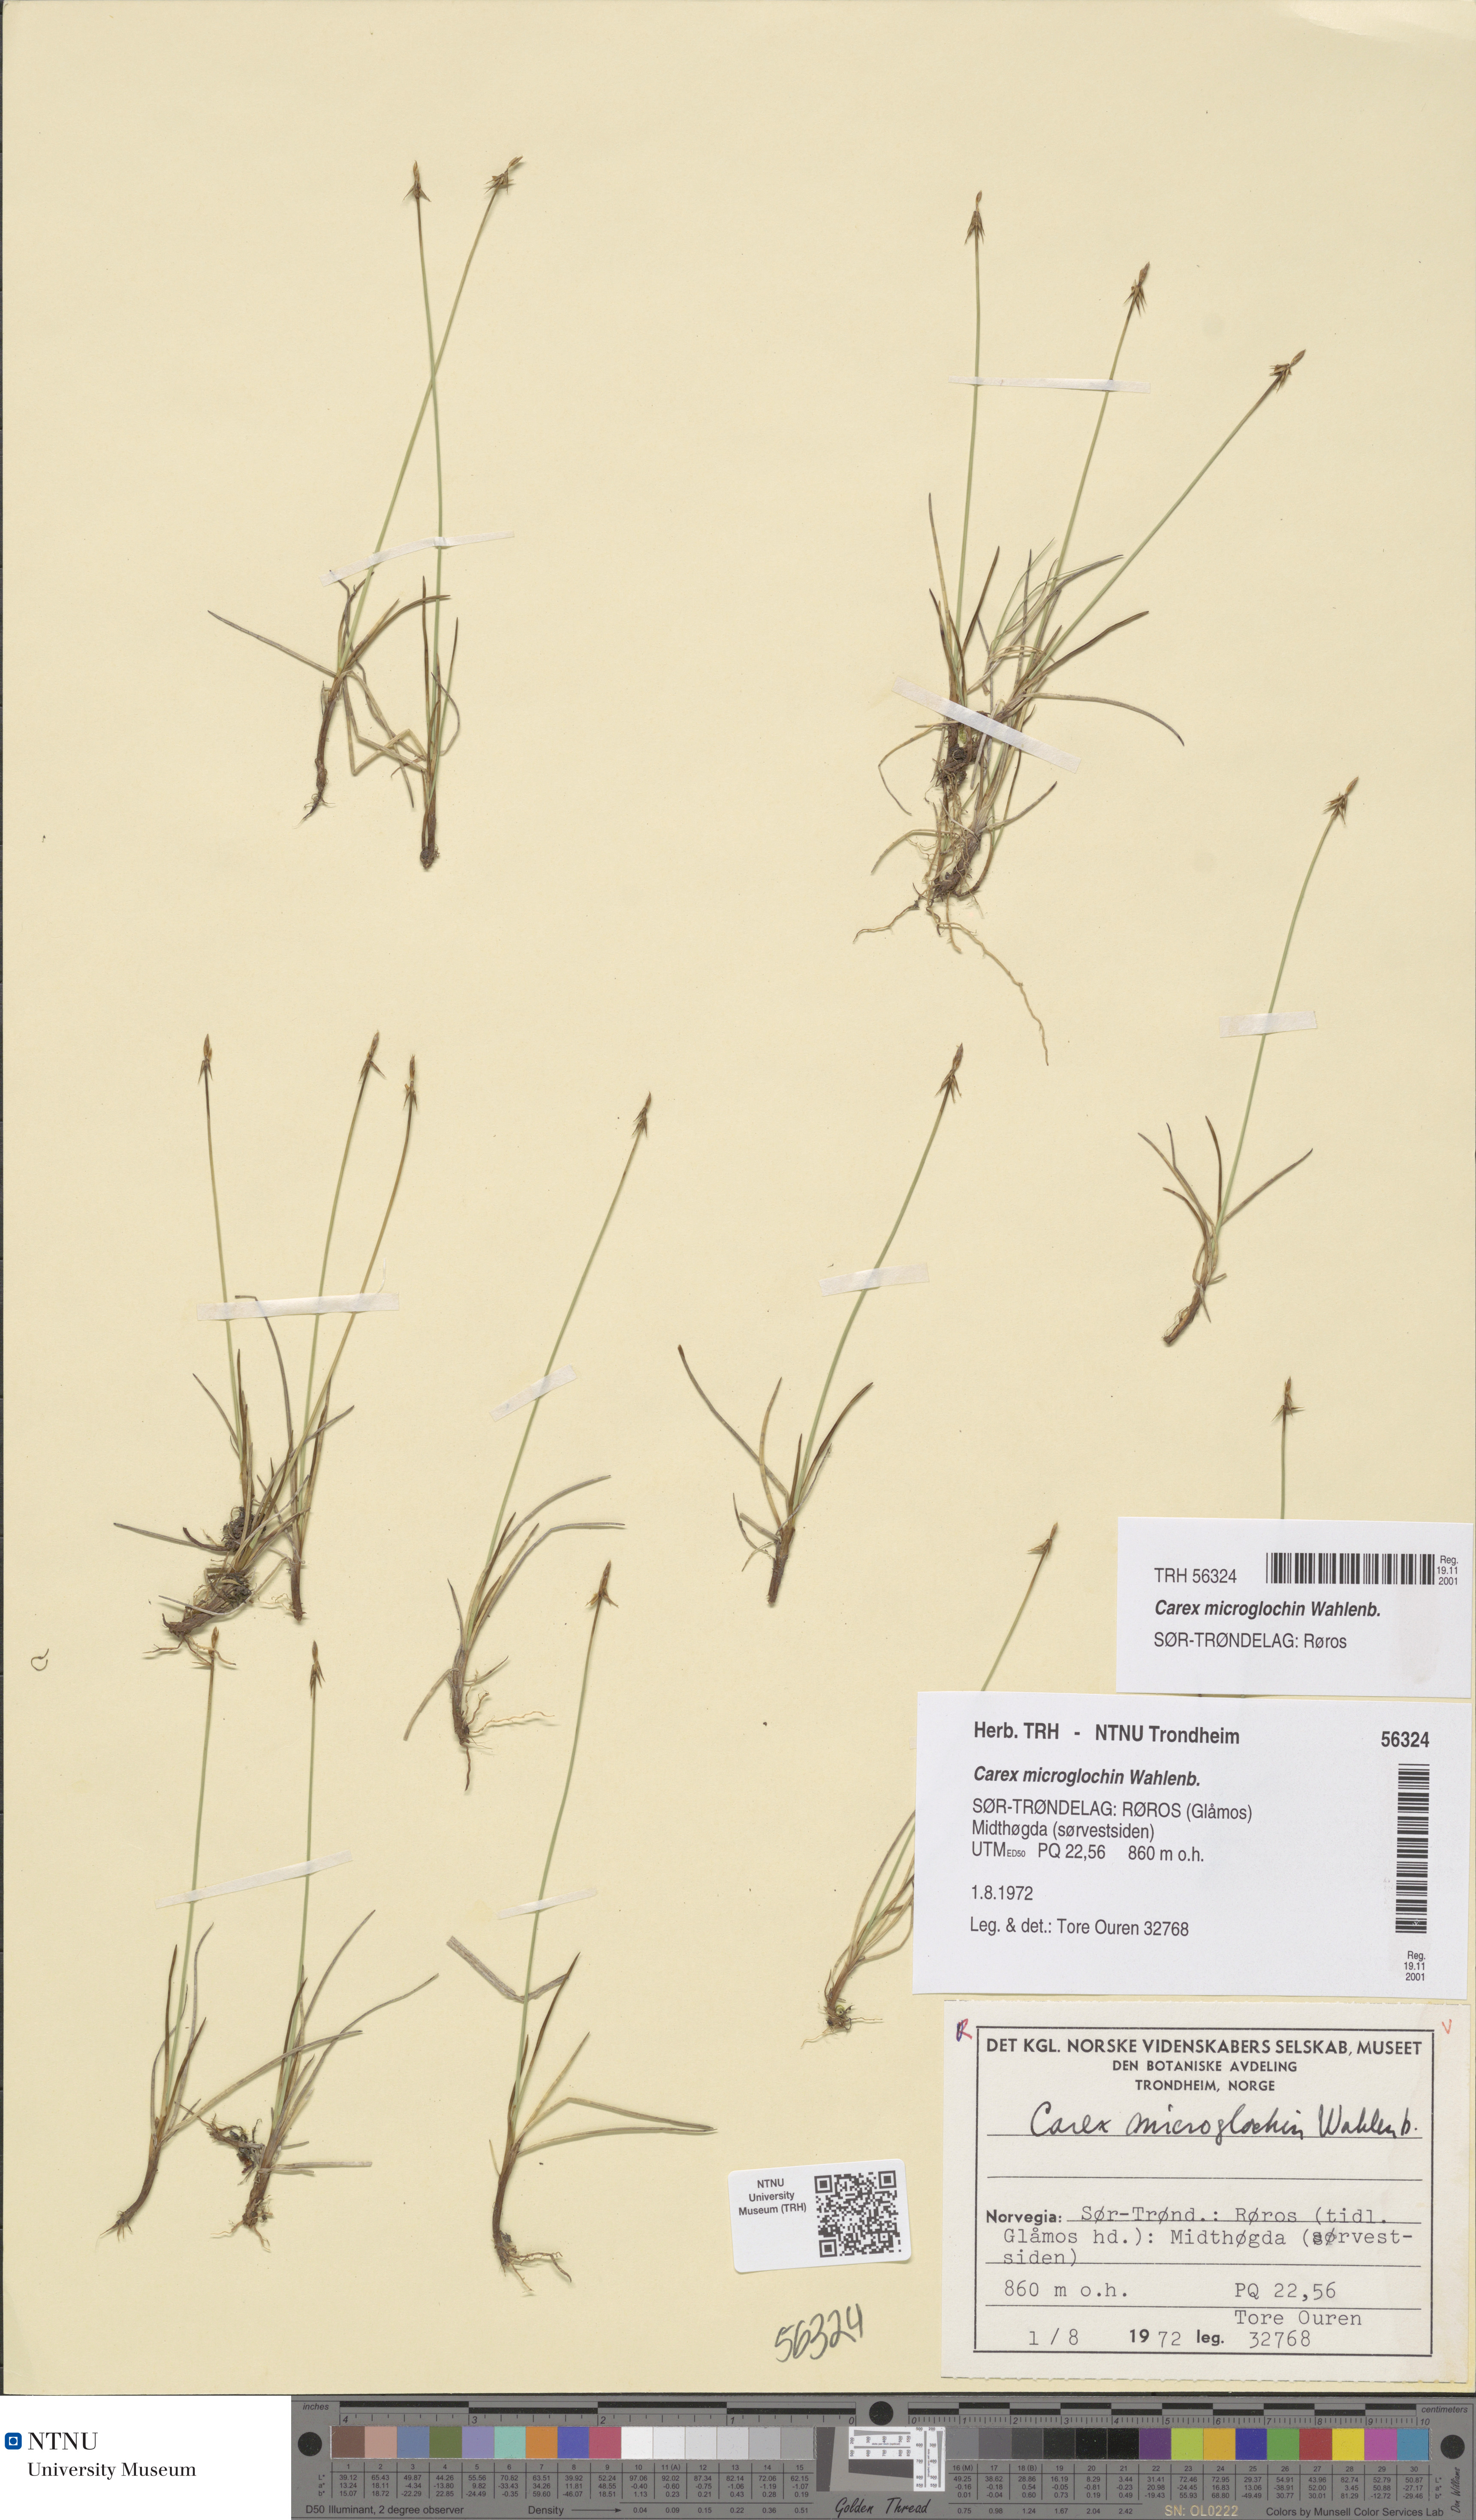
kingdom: Plantae
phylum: Tracheophyta
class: Liliopsida
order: Poales
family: Cyperaceae
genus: Carex
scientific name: Carex microglochin
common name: Bristle sedge
